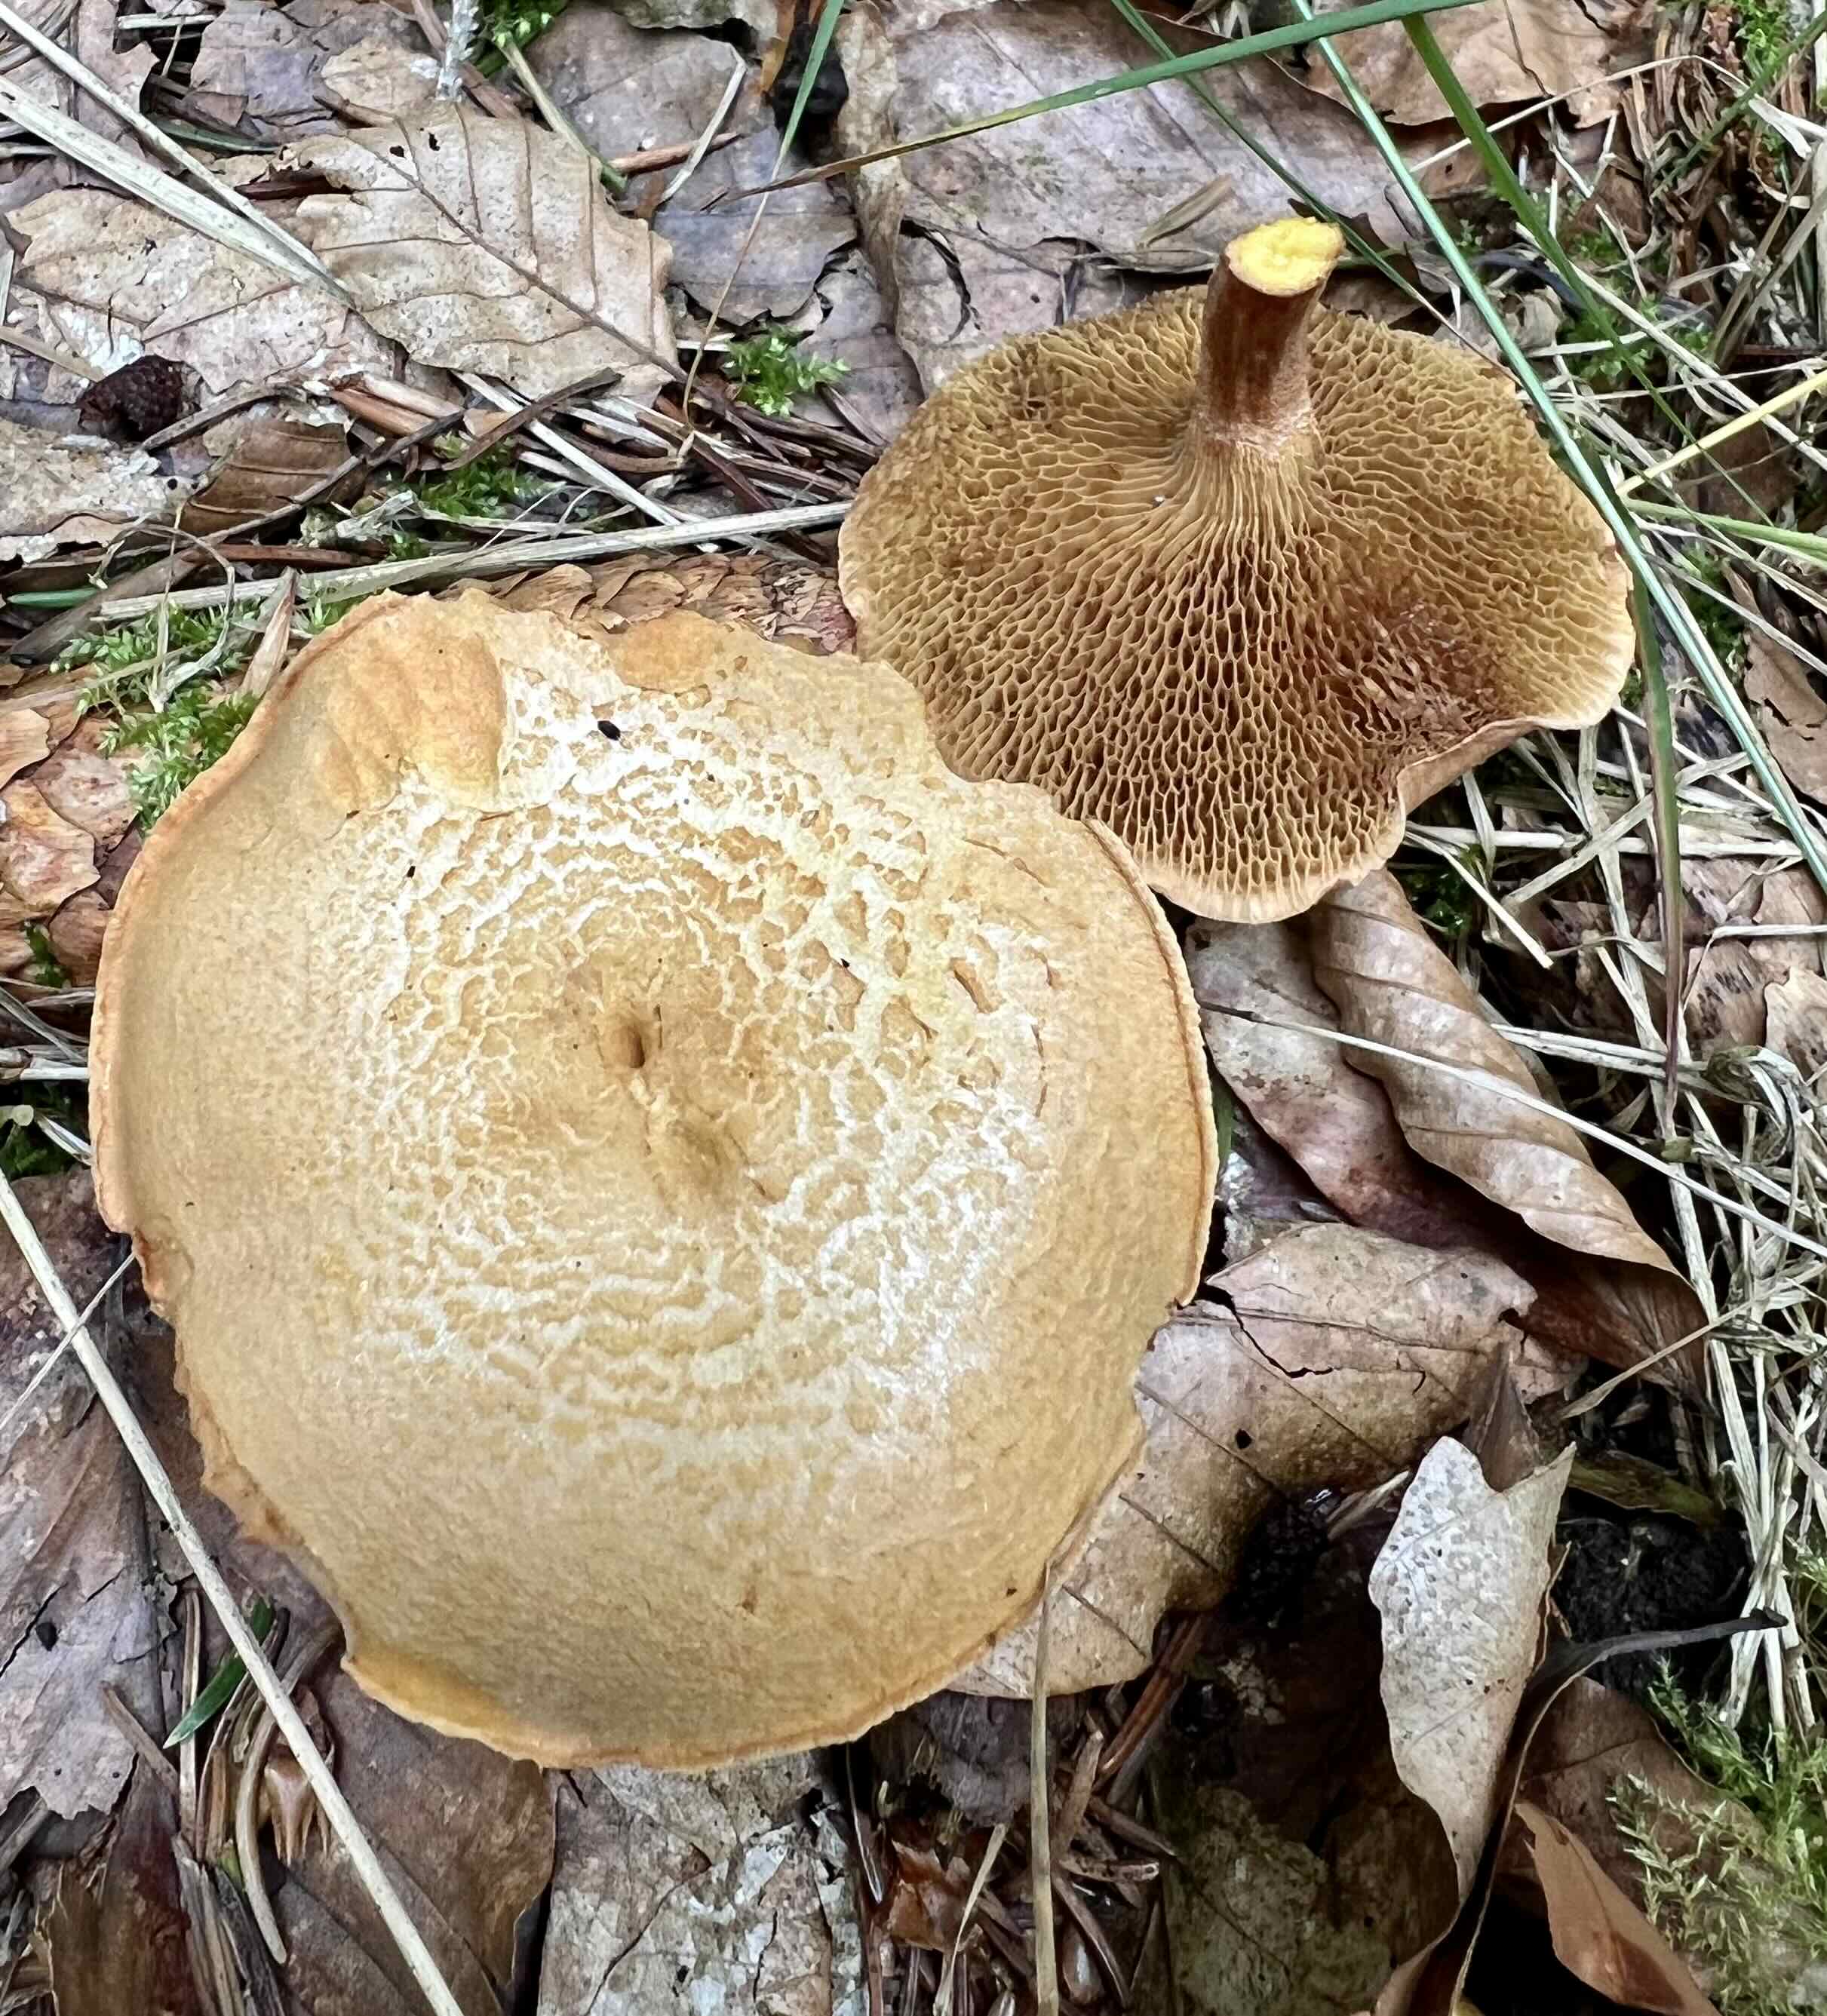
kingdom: Fungi
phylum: Basidiomycota
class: Agaricomycetes
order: Boletales
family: Boletaceae
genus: Chalciporus
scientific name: Chalciporus piperatus
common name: peberrørhat
